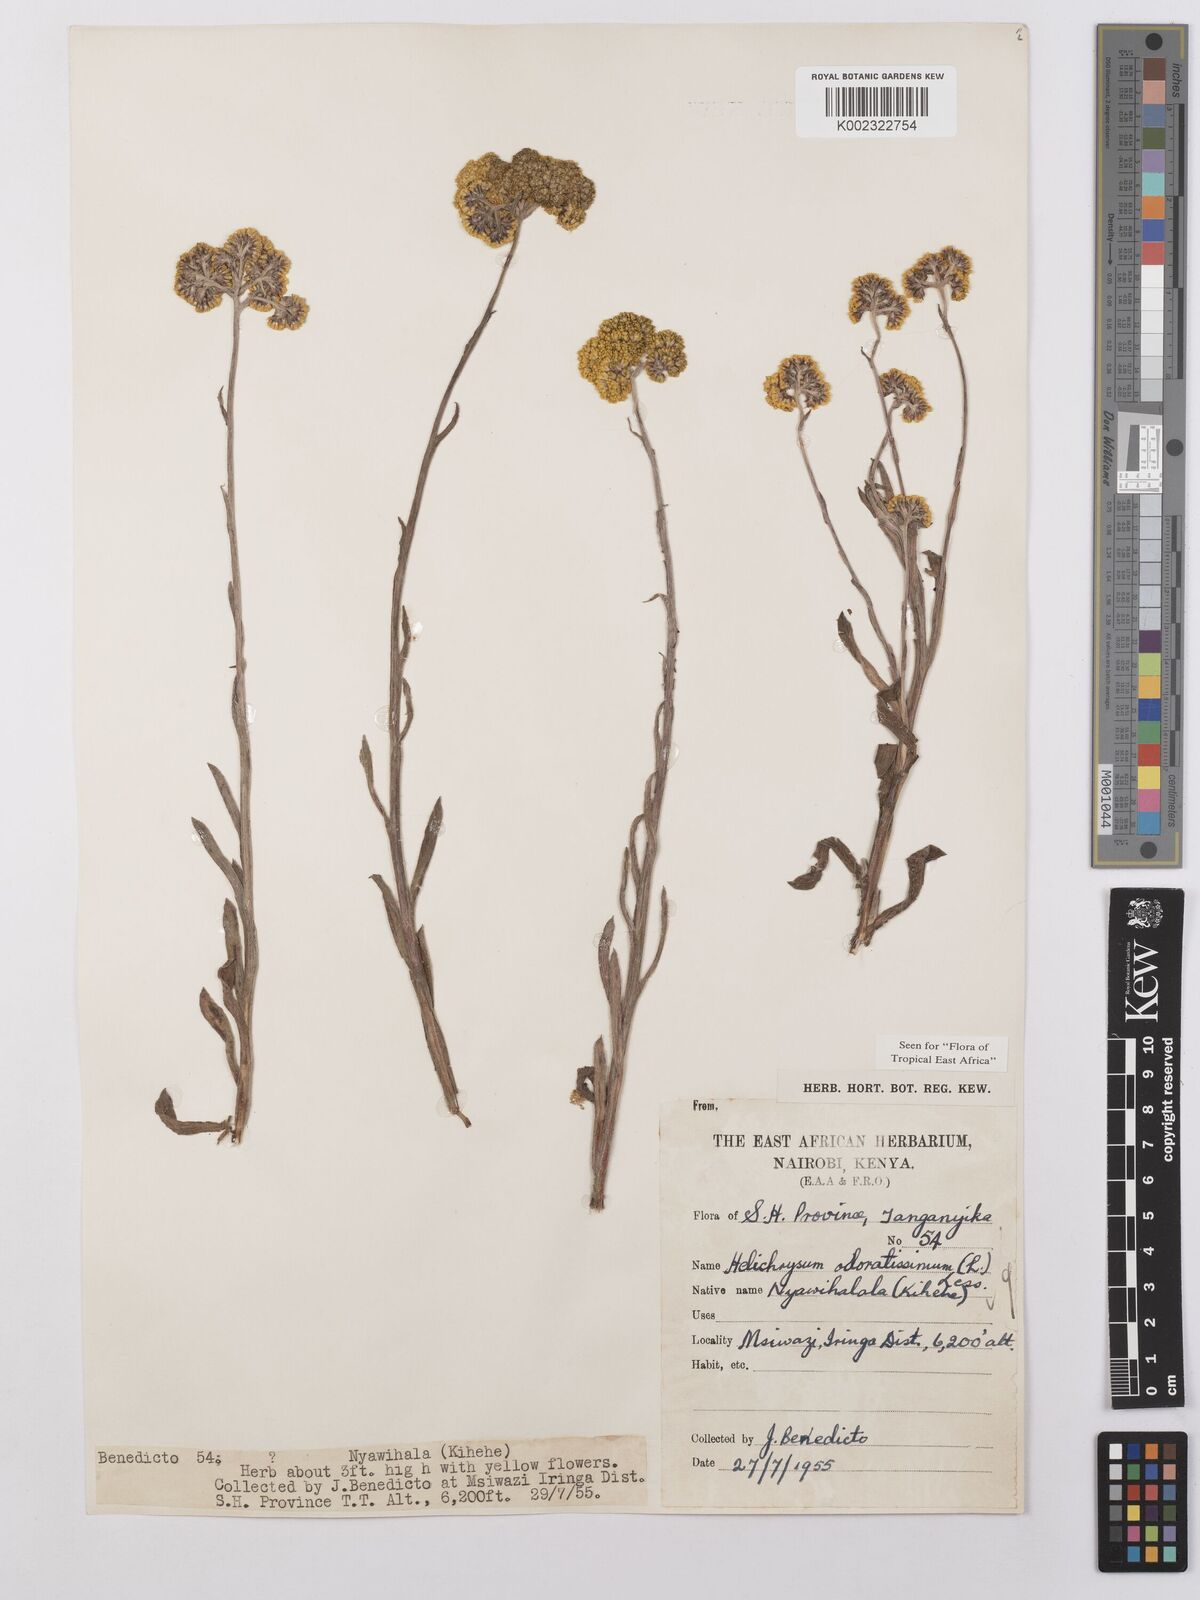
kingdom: Plantae
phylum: Tracheophyta
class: Magnoliopsida
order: Asterales
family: Asteraceae
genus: Helichrysum
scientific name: Helichrysum odoratissimum
